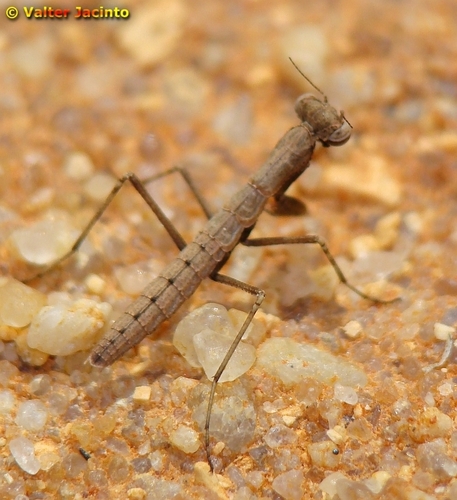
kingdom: Animalia
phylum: Arthropoda
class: Insecta
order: Mantodea
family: Rivetinidae
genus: Geomantis
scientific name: Geomantis larvoides
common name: Wingless ground mantis
